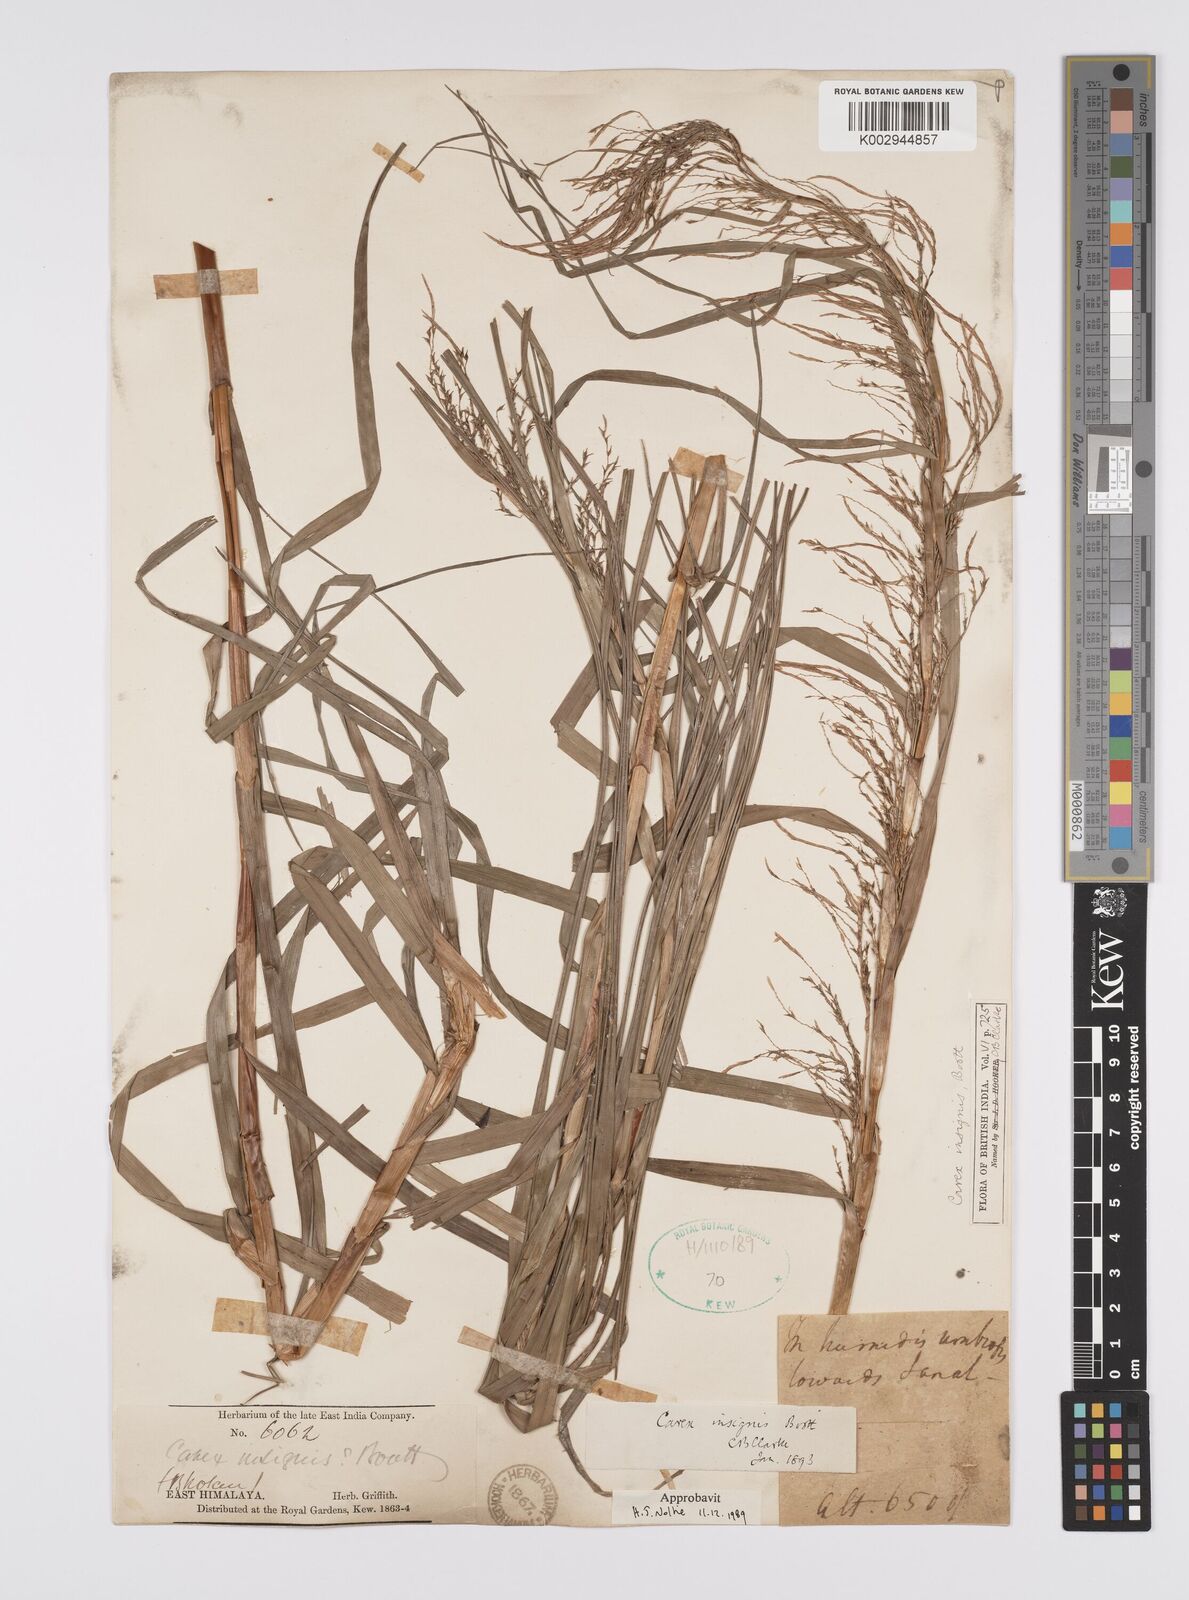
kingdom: Plantae
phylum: Tracheophyta
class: Liliopsida
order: Poales
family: Cyperaceae
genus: Carex
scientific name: Carex insignis
